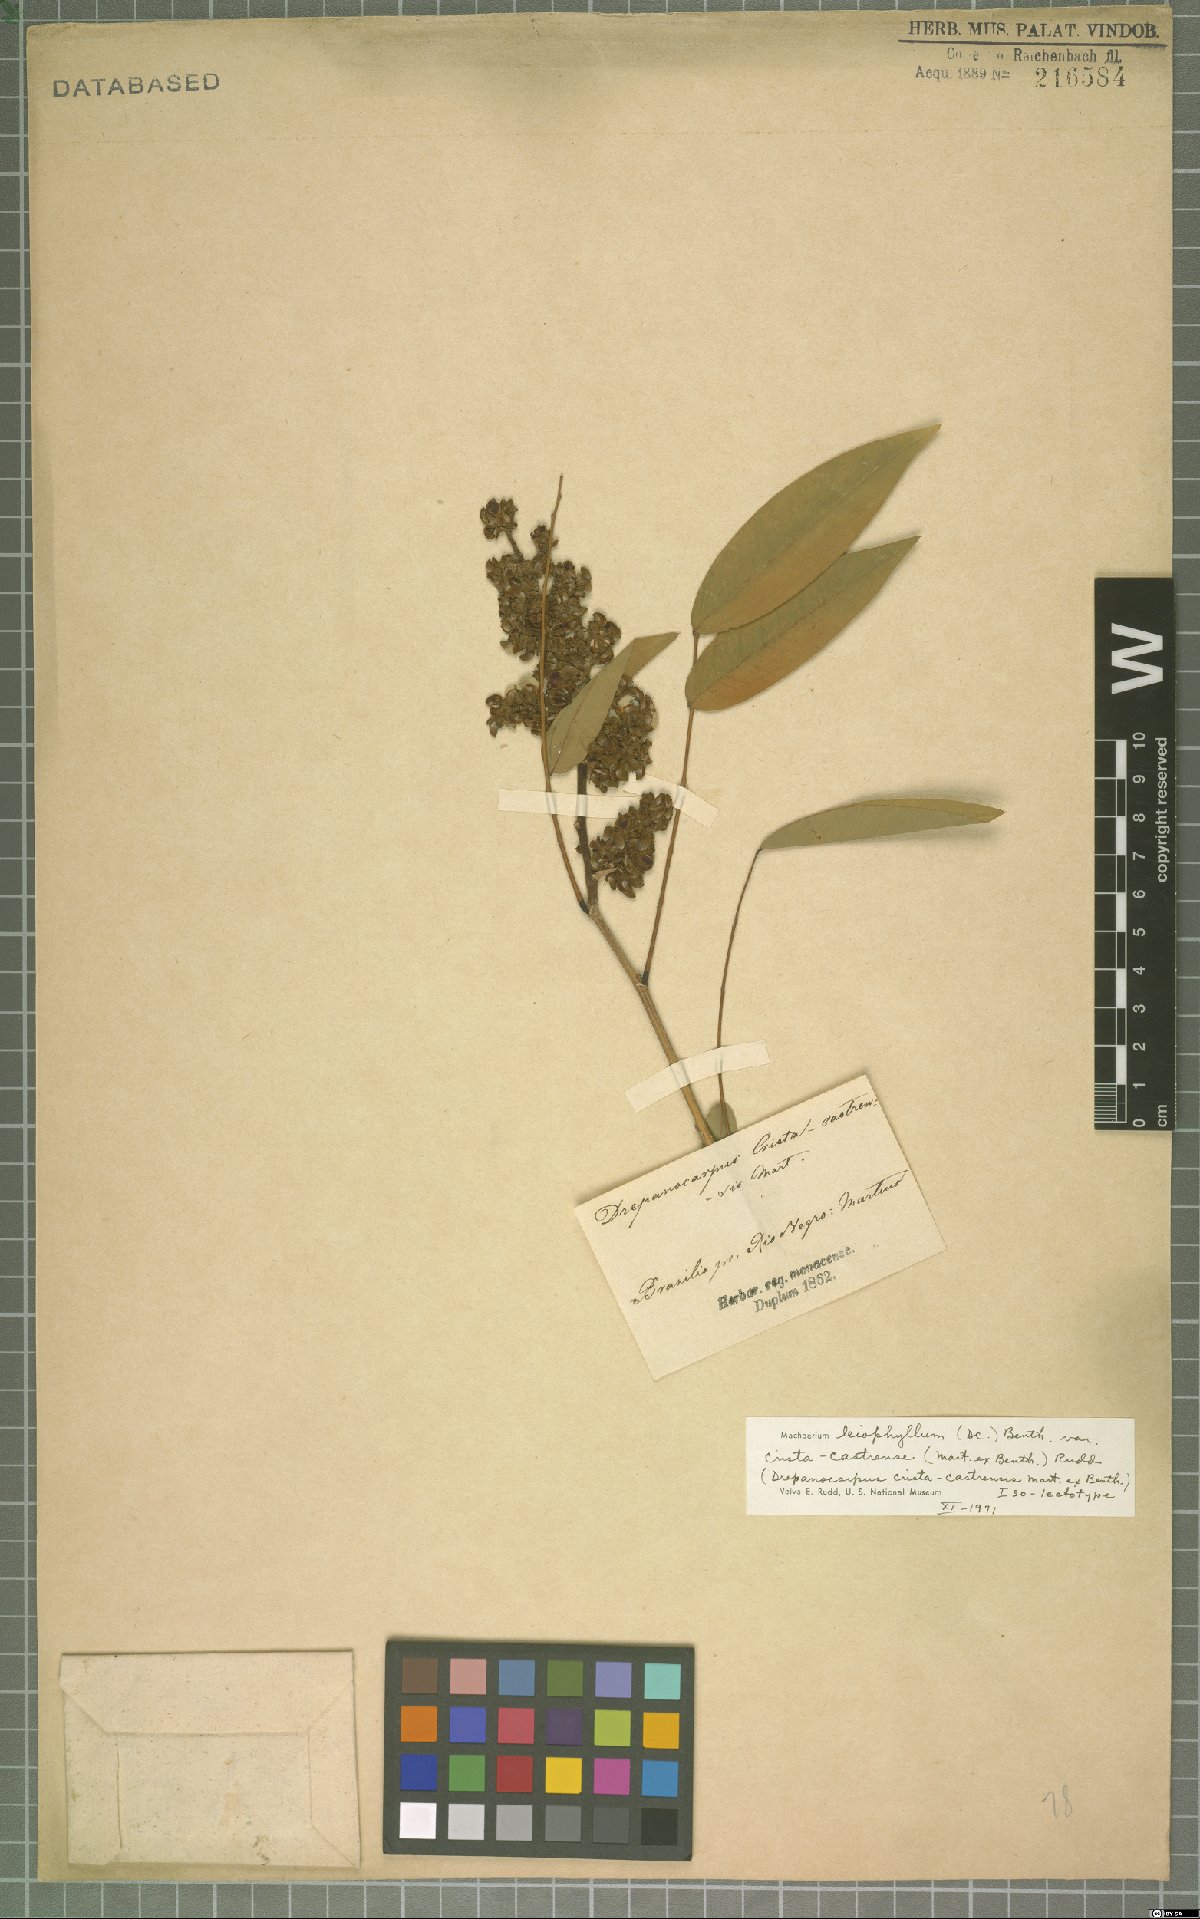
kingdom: Plantae
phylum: Tracheophyta
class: Magnoliopsida
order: Fabales
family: Fabaceae
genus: Machaerium
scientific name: Machaerium leiophyllum
